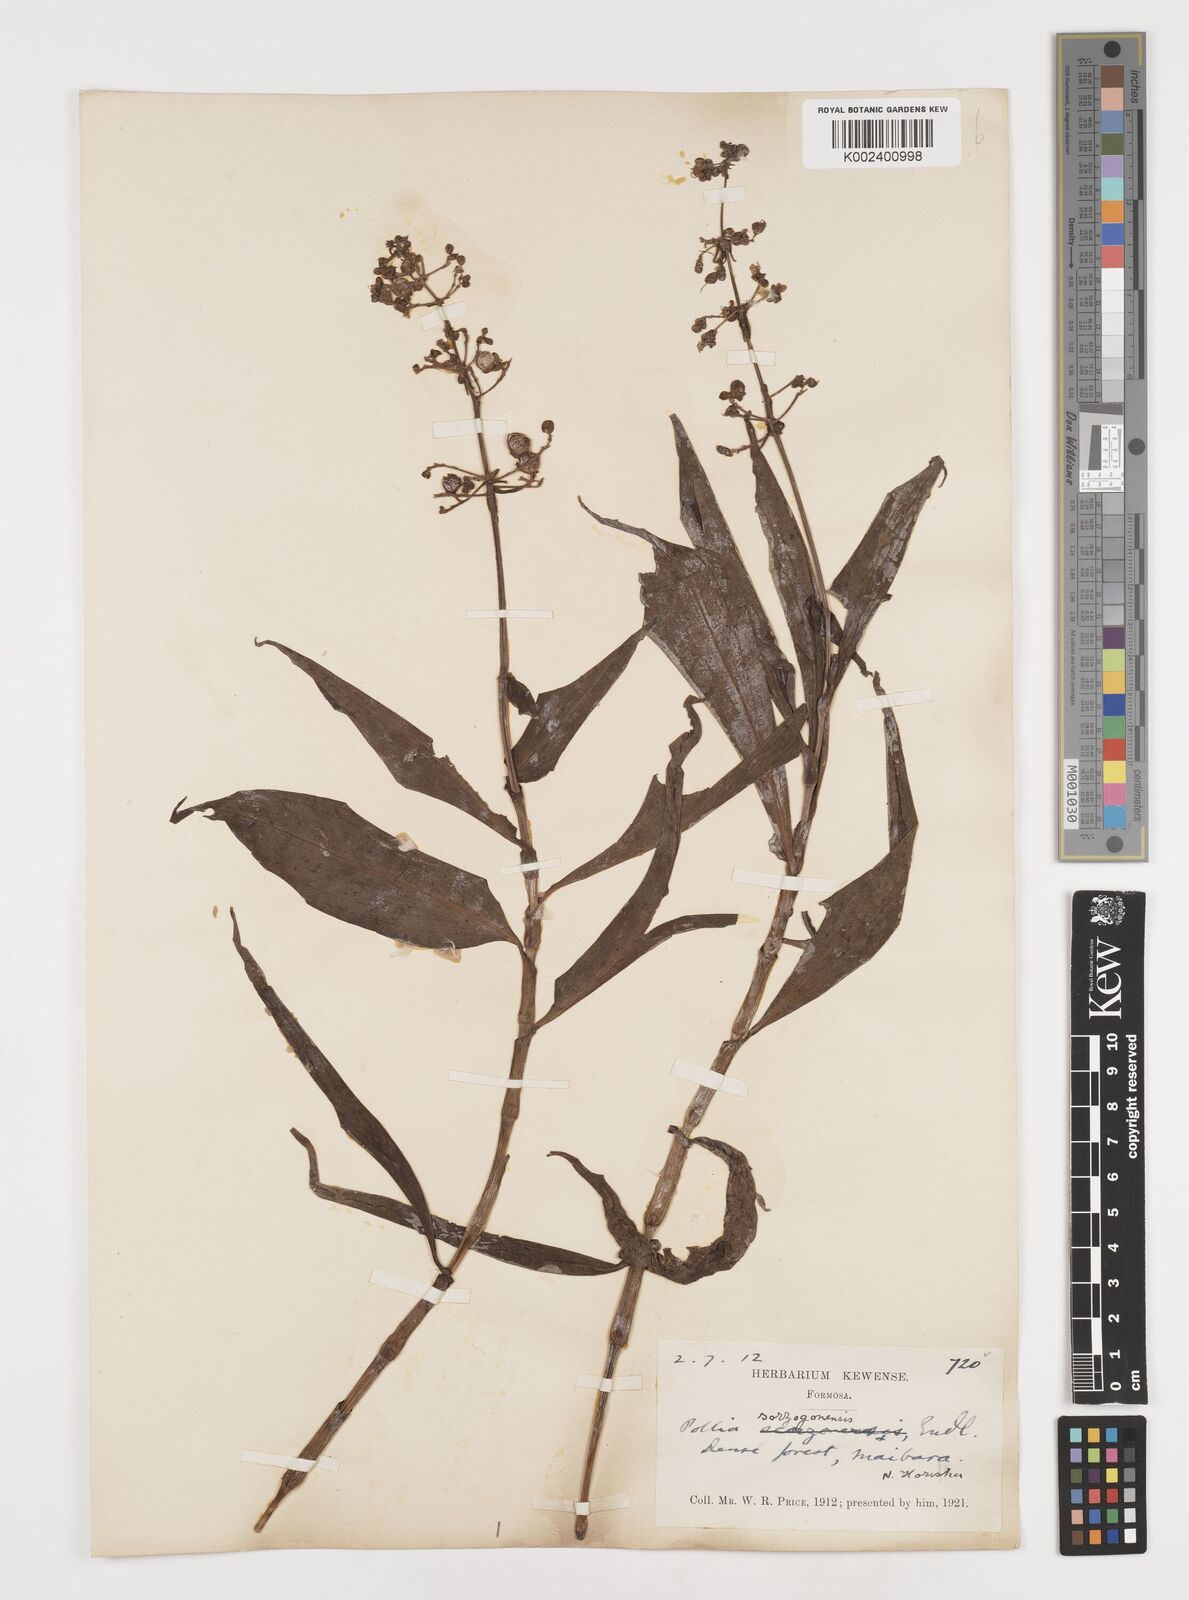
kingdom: Plantae
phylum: Tracheophyta
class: Liliopsida
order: Commelinales
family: Commelinaceae
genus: Pollia
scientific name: Pollia secundiflora
